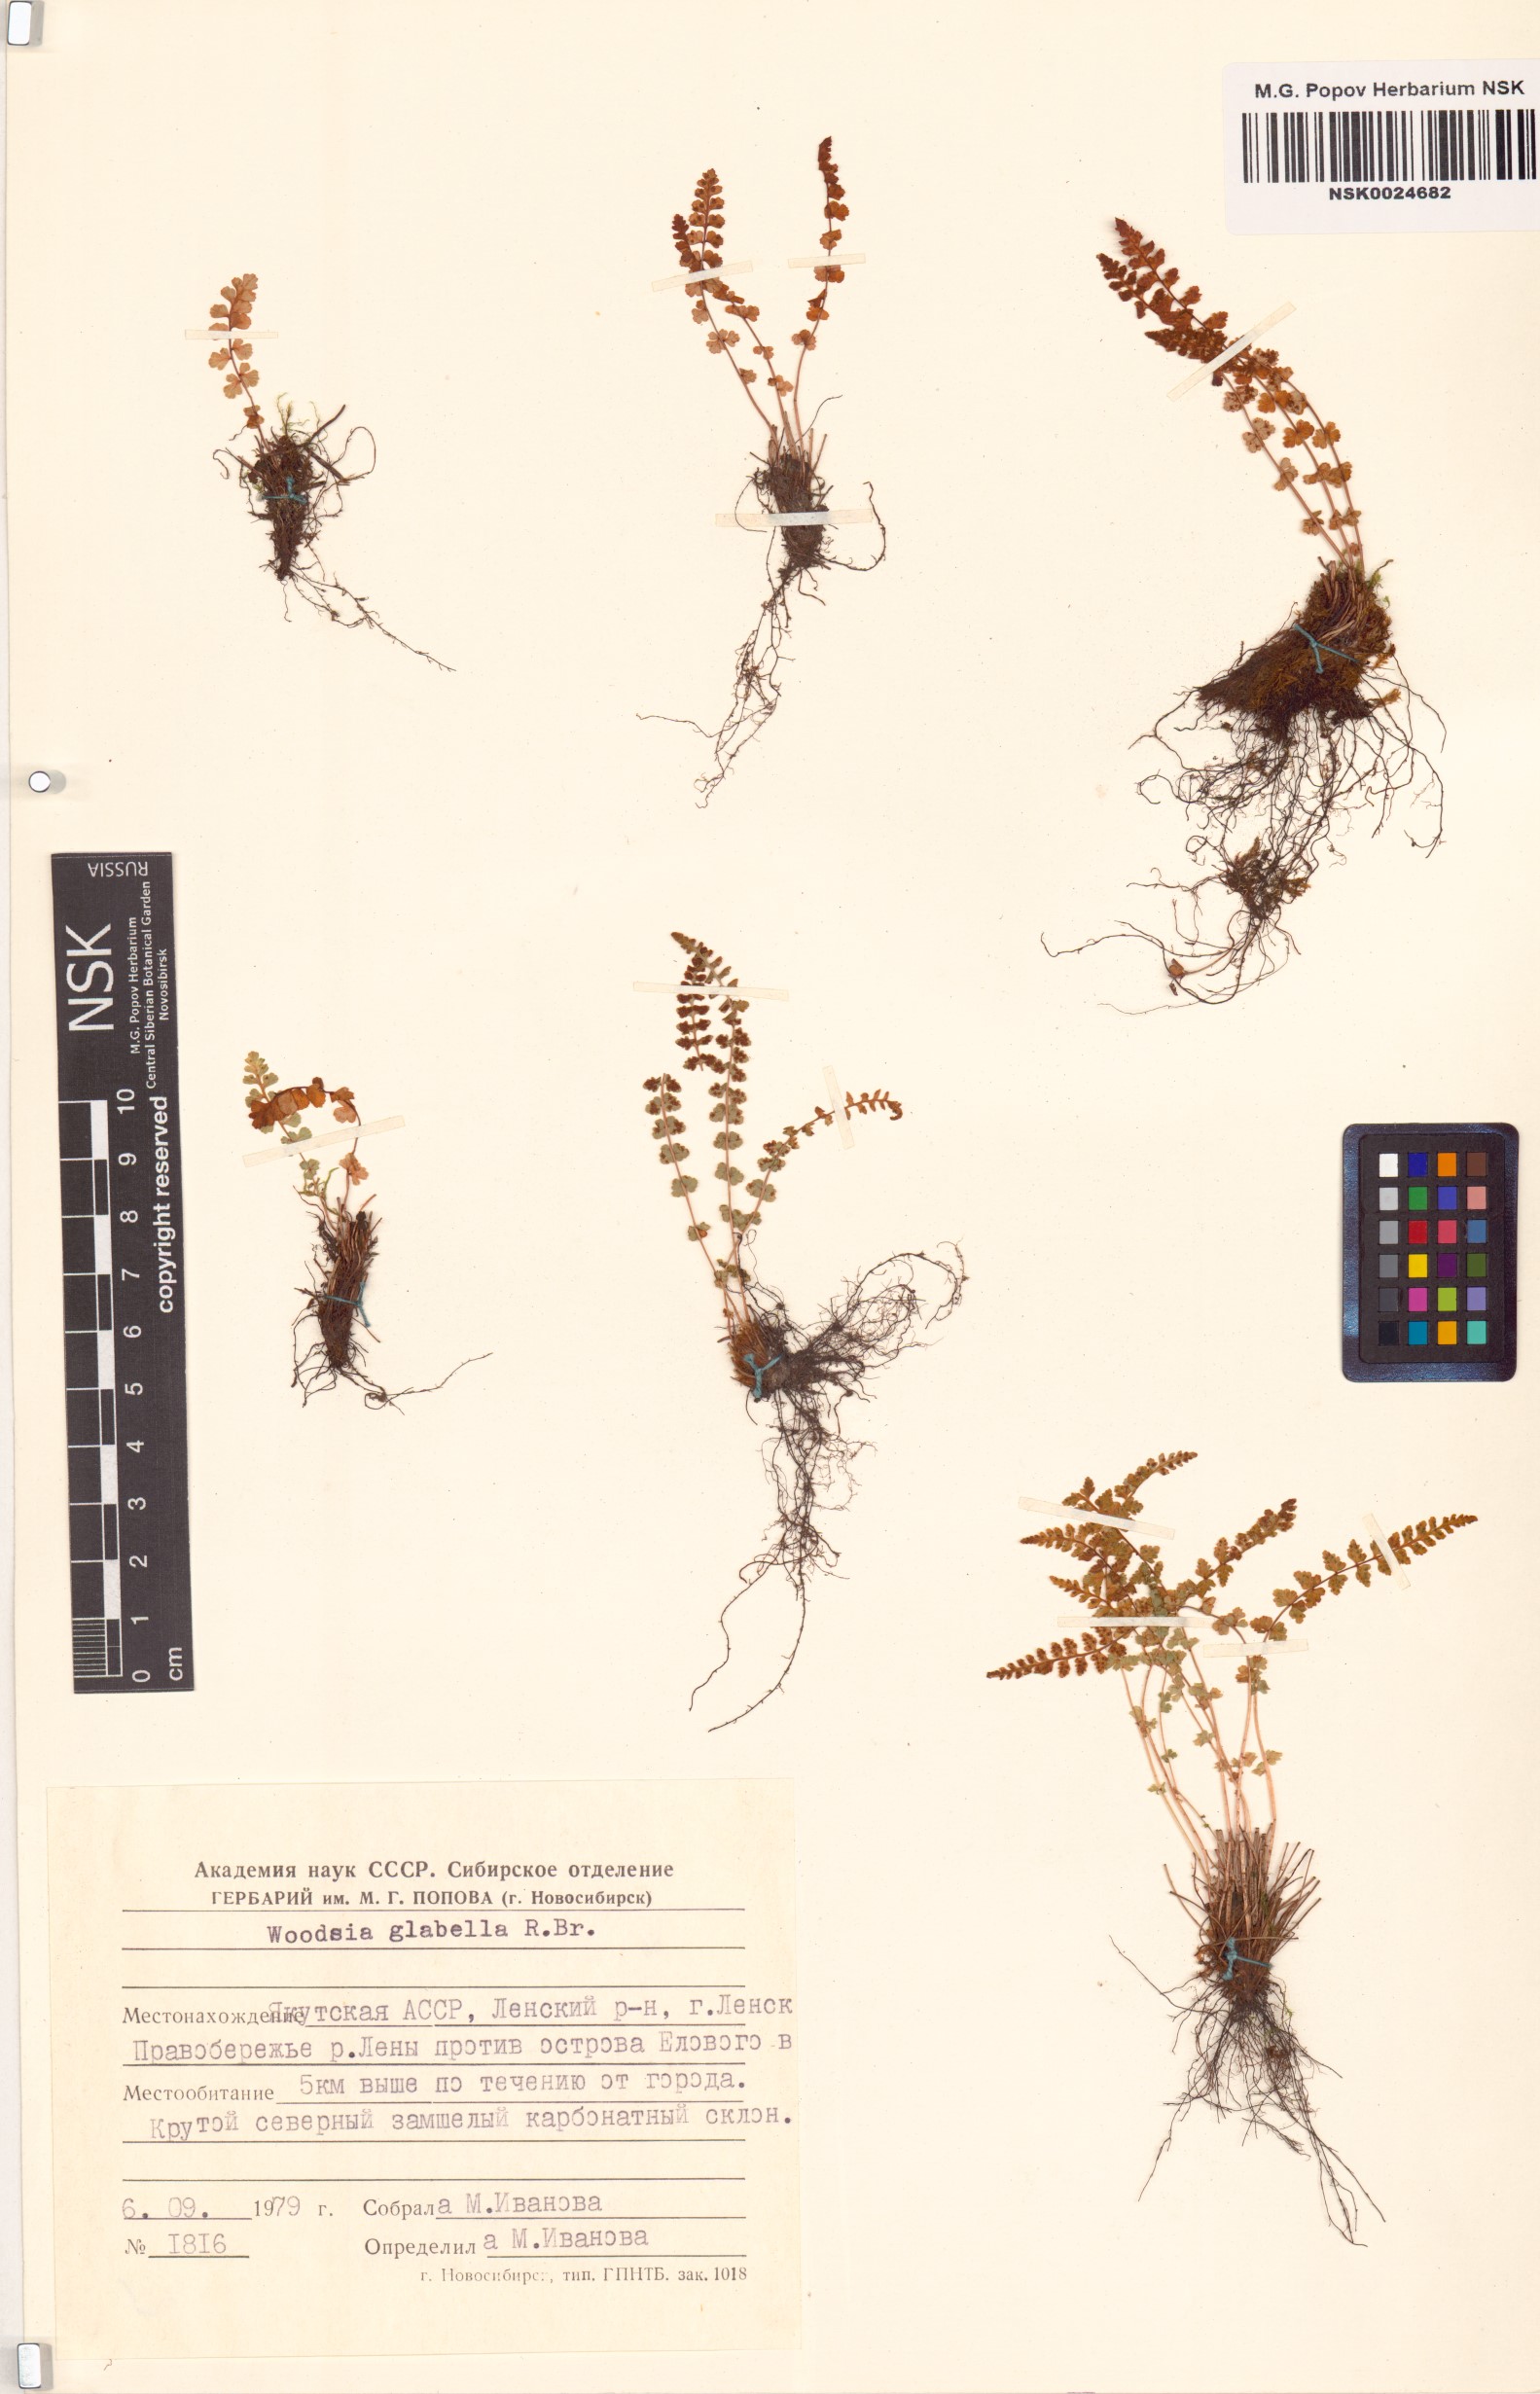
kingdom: Plantae
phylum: Tracheophyta
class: Polypodiopsida
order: Polypodiales
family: Woodsiaceae
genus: Woodsia
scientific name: Woodsia glabella
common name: Smooth woodsia
